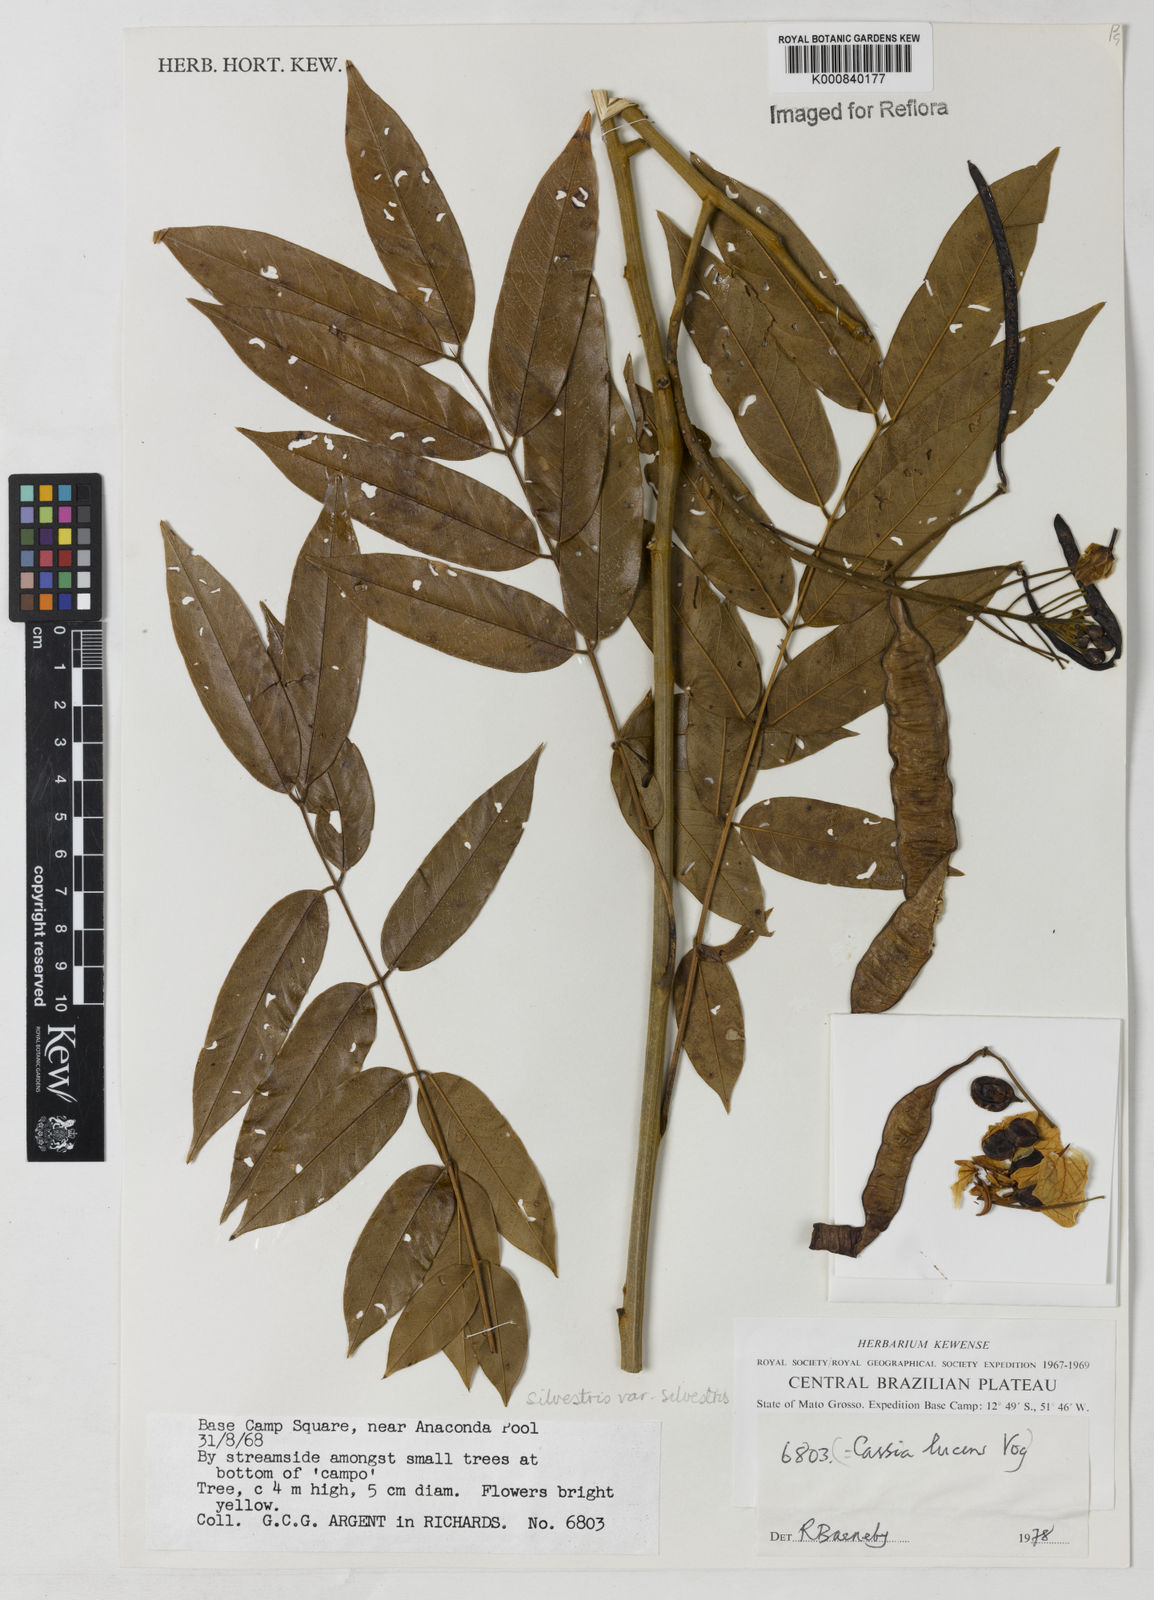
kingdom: Plantae
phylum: Tracheophyta
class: Magnoliopsida
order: Fabales
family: Fabaceae
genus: Senna
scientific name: Senna silvestris
